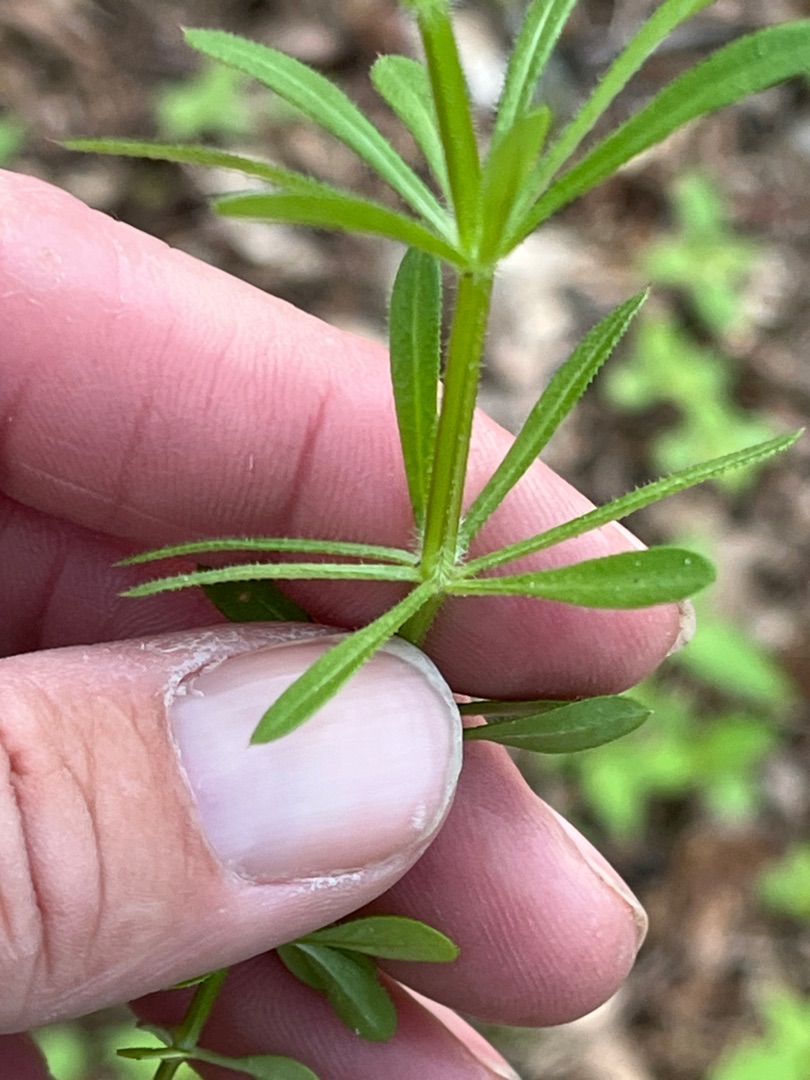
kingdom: Plantae
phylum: Tracheophyta
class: Magnoliopsida
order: Gentianales
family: Rubiaceae
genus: Galium
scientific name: Galium aparine
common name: Burre-snerre
